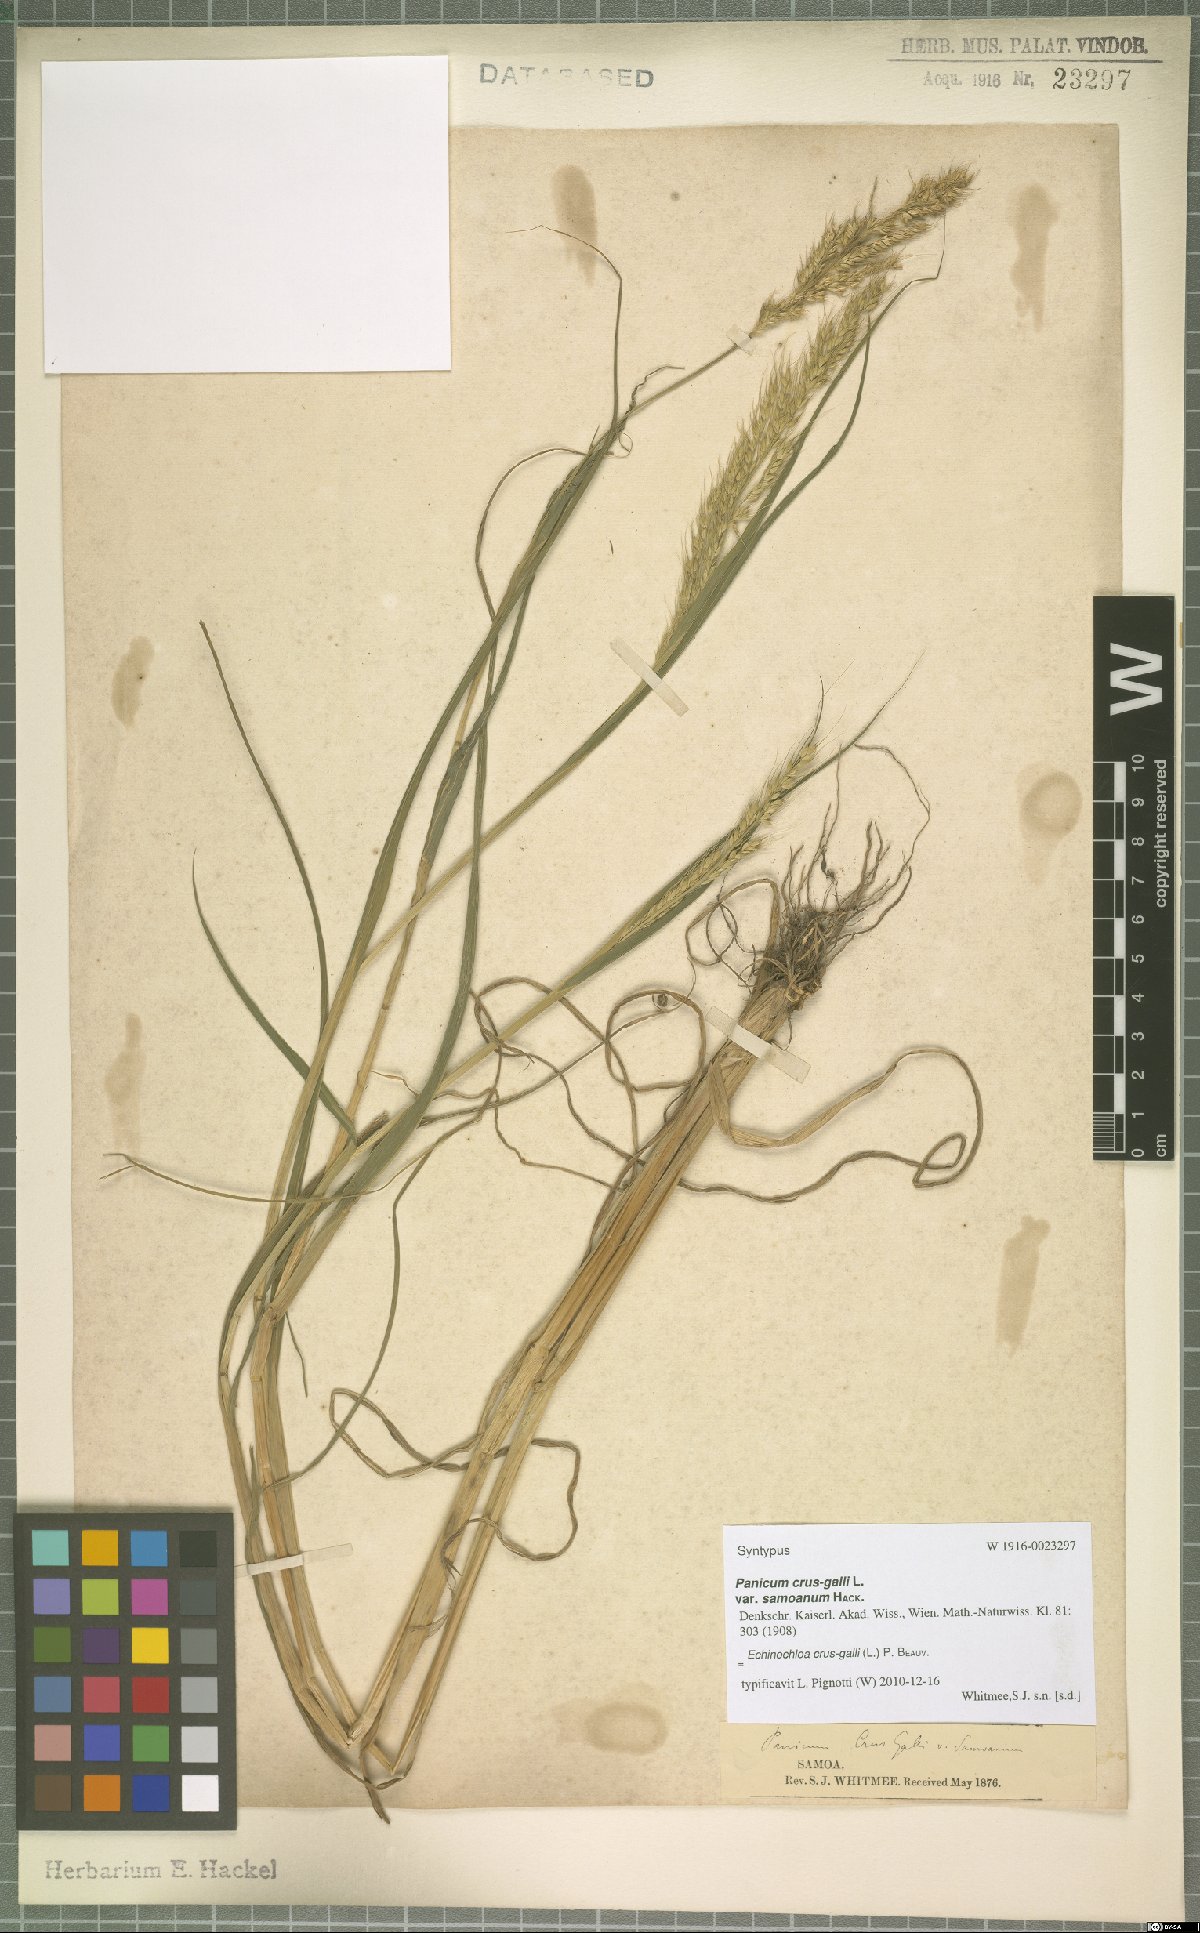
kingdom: Plantae
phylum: Tracheophyta
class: Liliopsida
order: Poales
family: Poaceae
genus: Echinochloa
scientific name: Echinochloa crus-galli
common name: Cockspur
